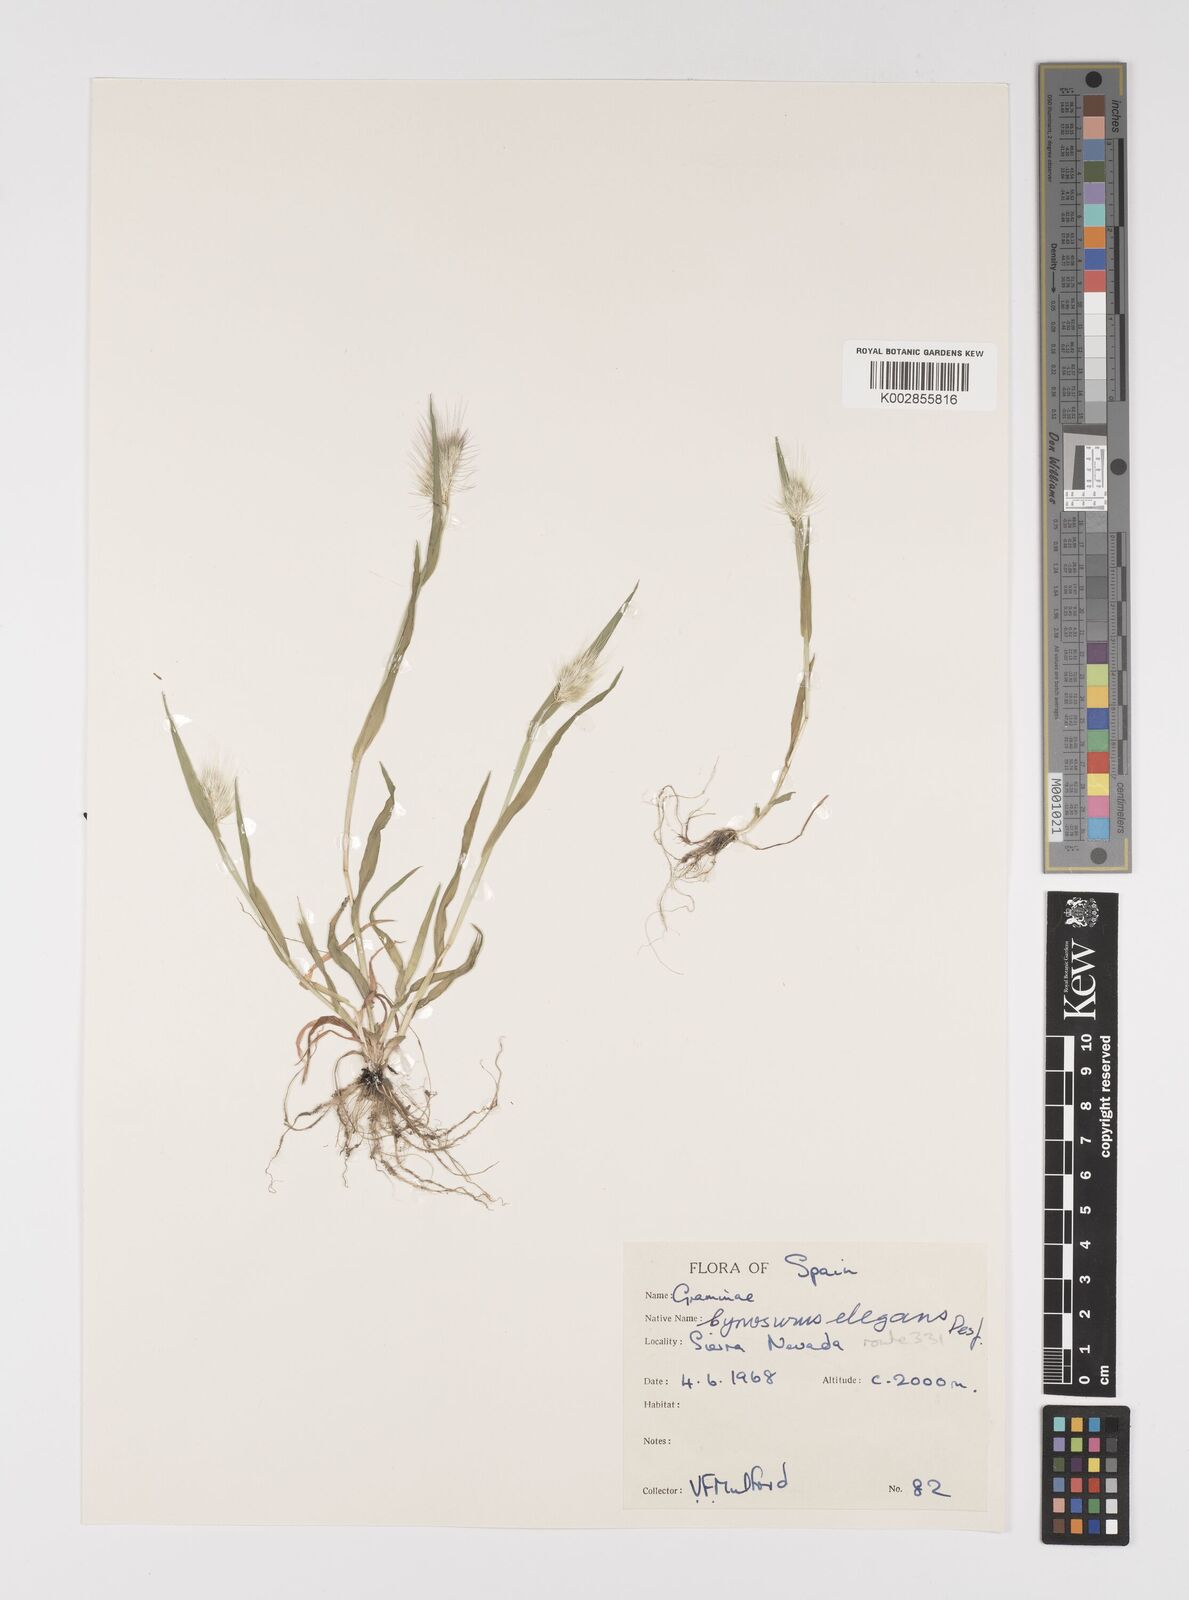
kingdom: Plantae
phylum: Tracheophyta
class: Liliopsida
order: Poales
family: Poaceae
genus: Cynosurus
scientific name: Cynosurus elegans
